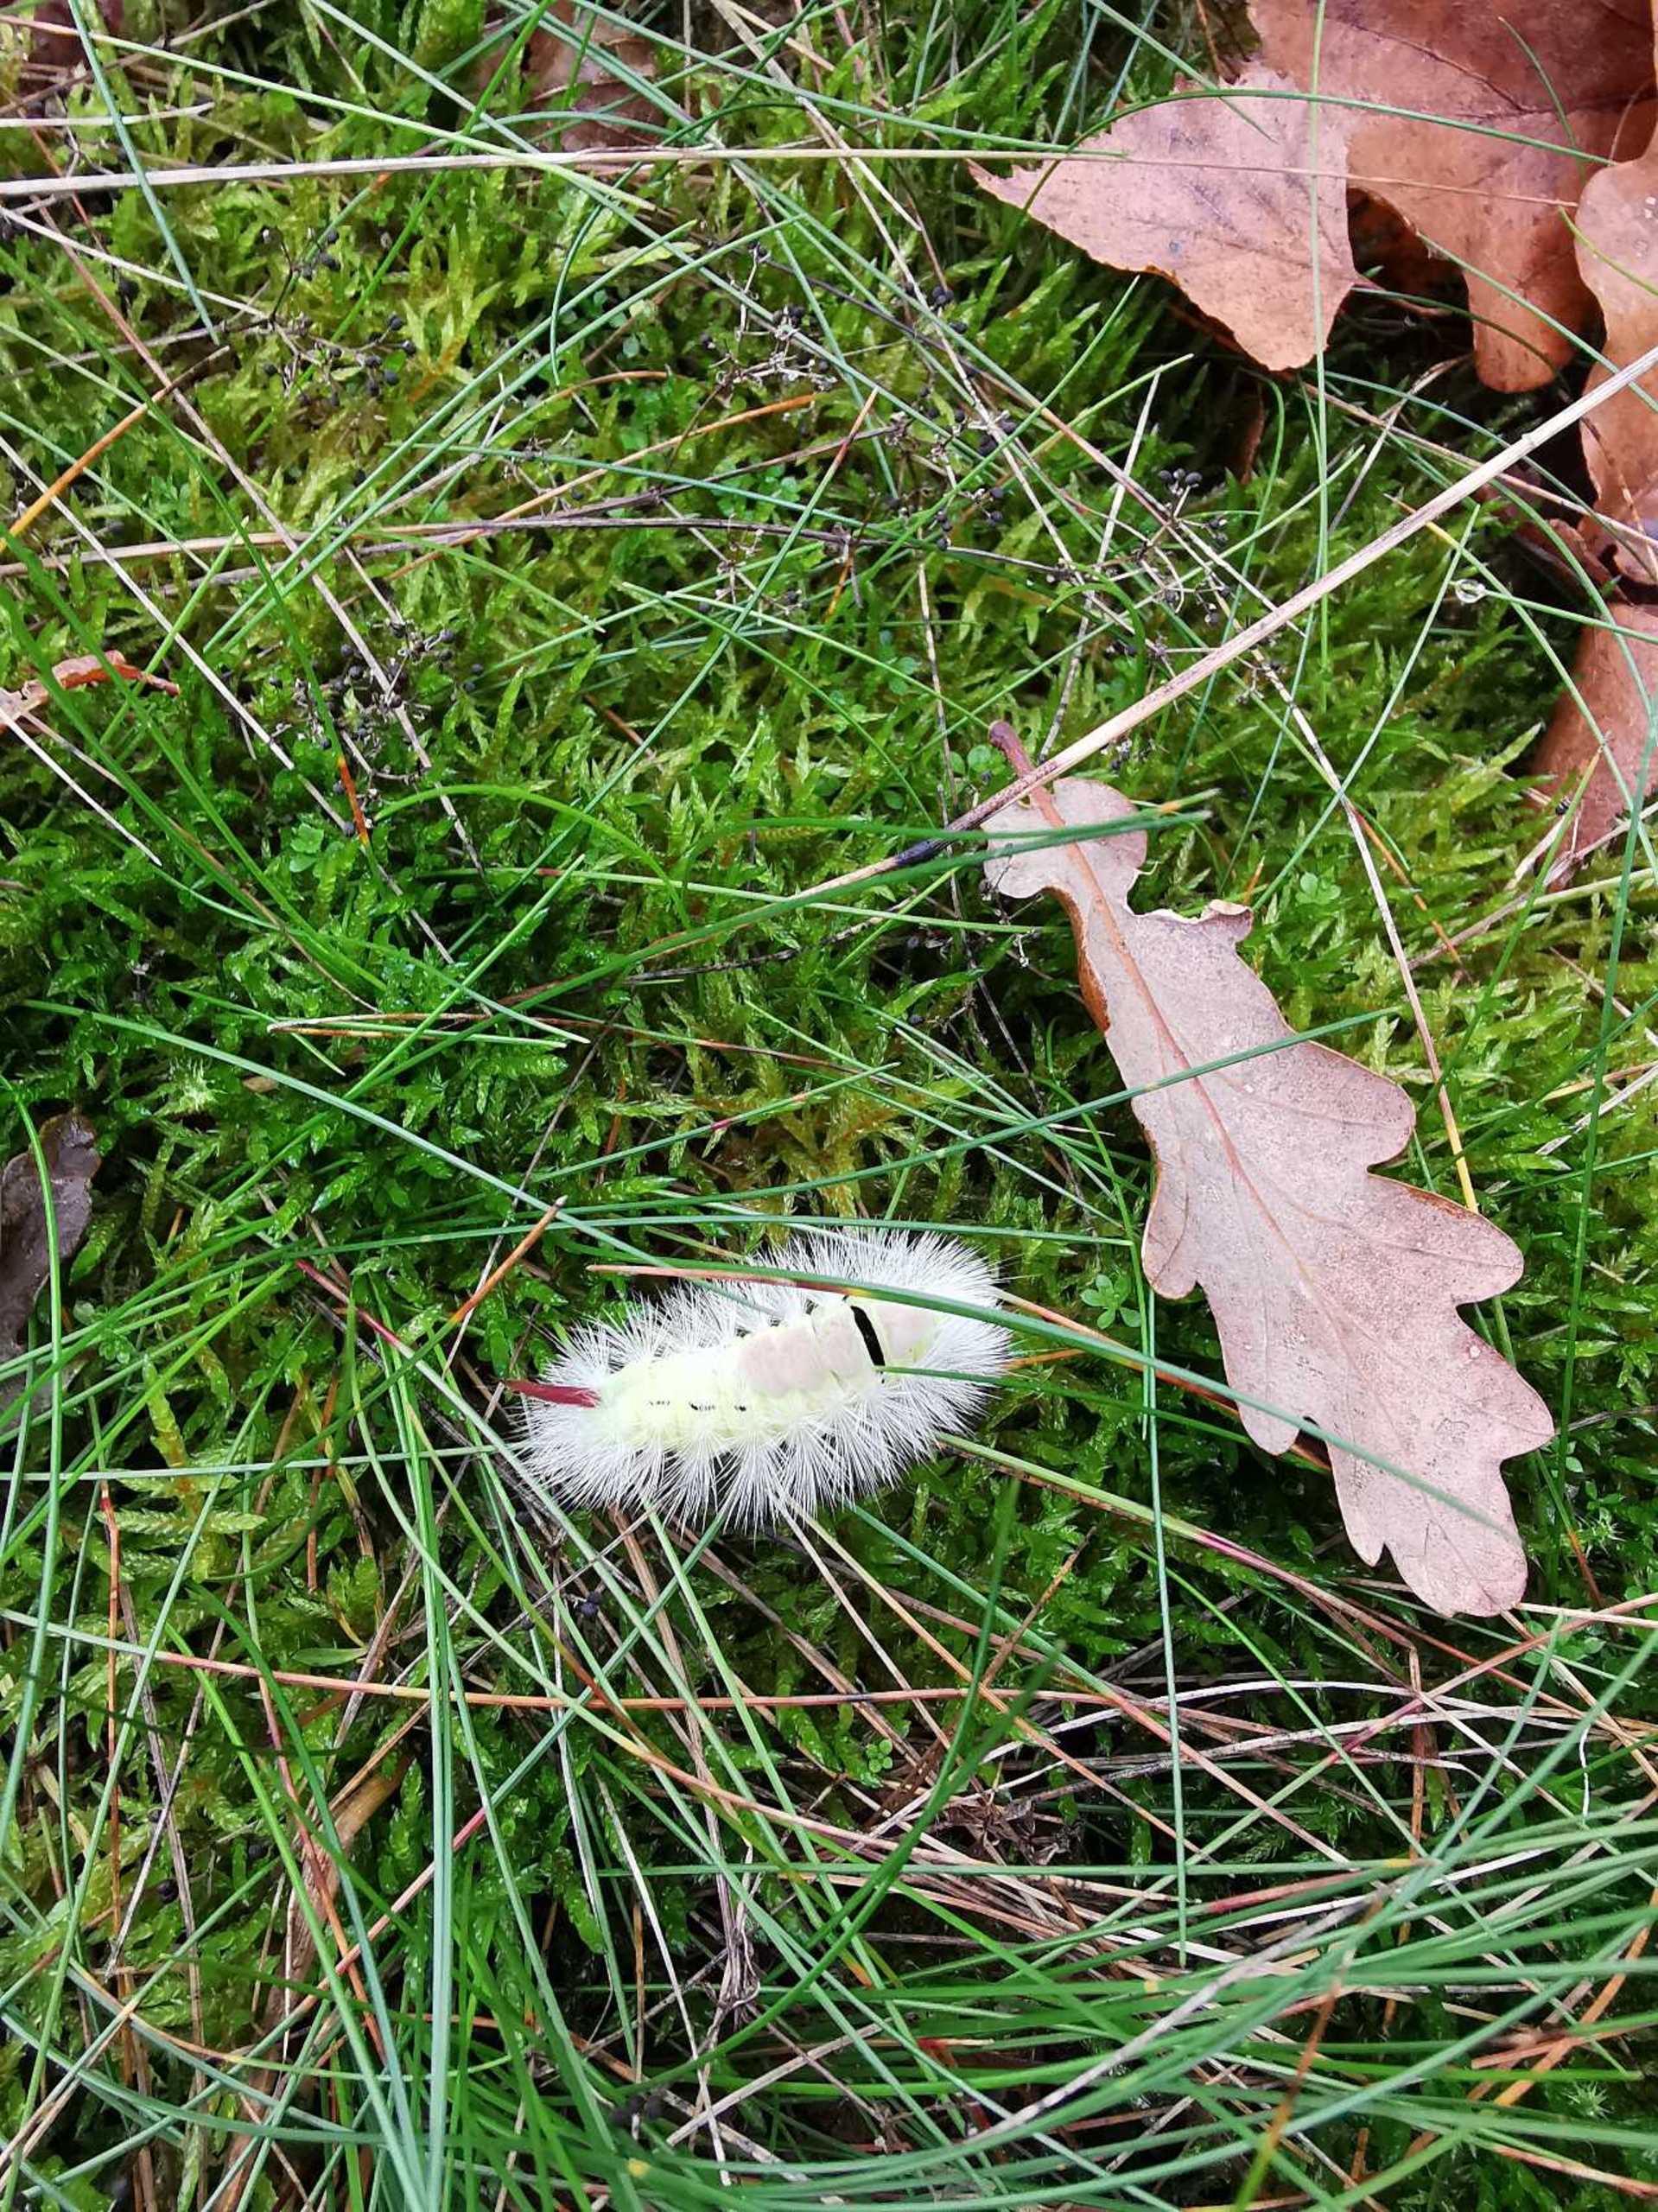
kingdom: Animalia
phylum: Arthropoda
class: Insecta
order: Lepidoptera
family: Erebidae
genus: Calliteara
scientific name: Calliteara pudibunda
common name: Bøgenonne
